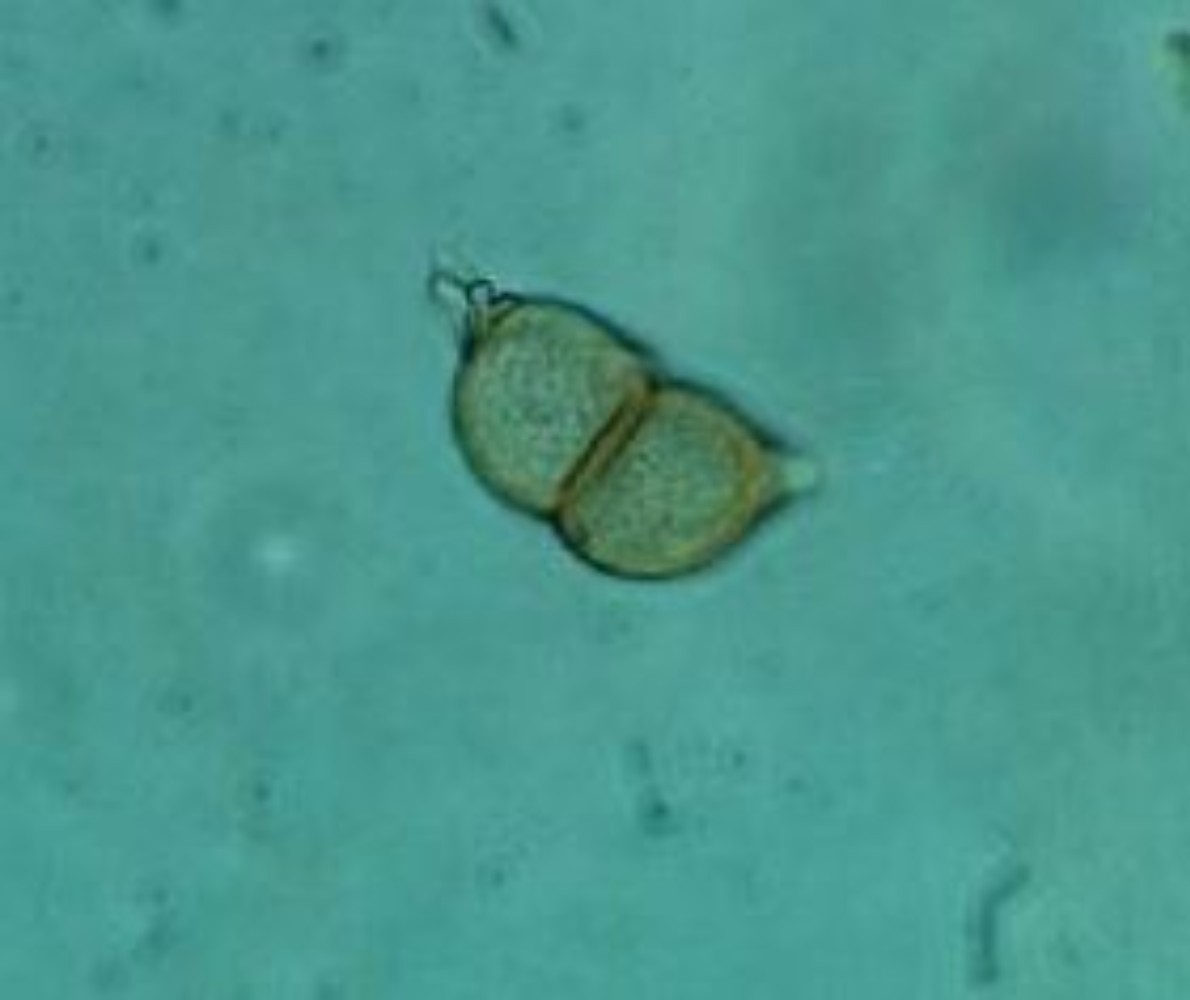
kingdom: Fungi
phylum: Basidiomycota
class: Pucciniomycetes
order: Pucciniales
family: Pucciniaceae
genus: Puccinia
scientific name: Puccinia circaeae
